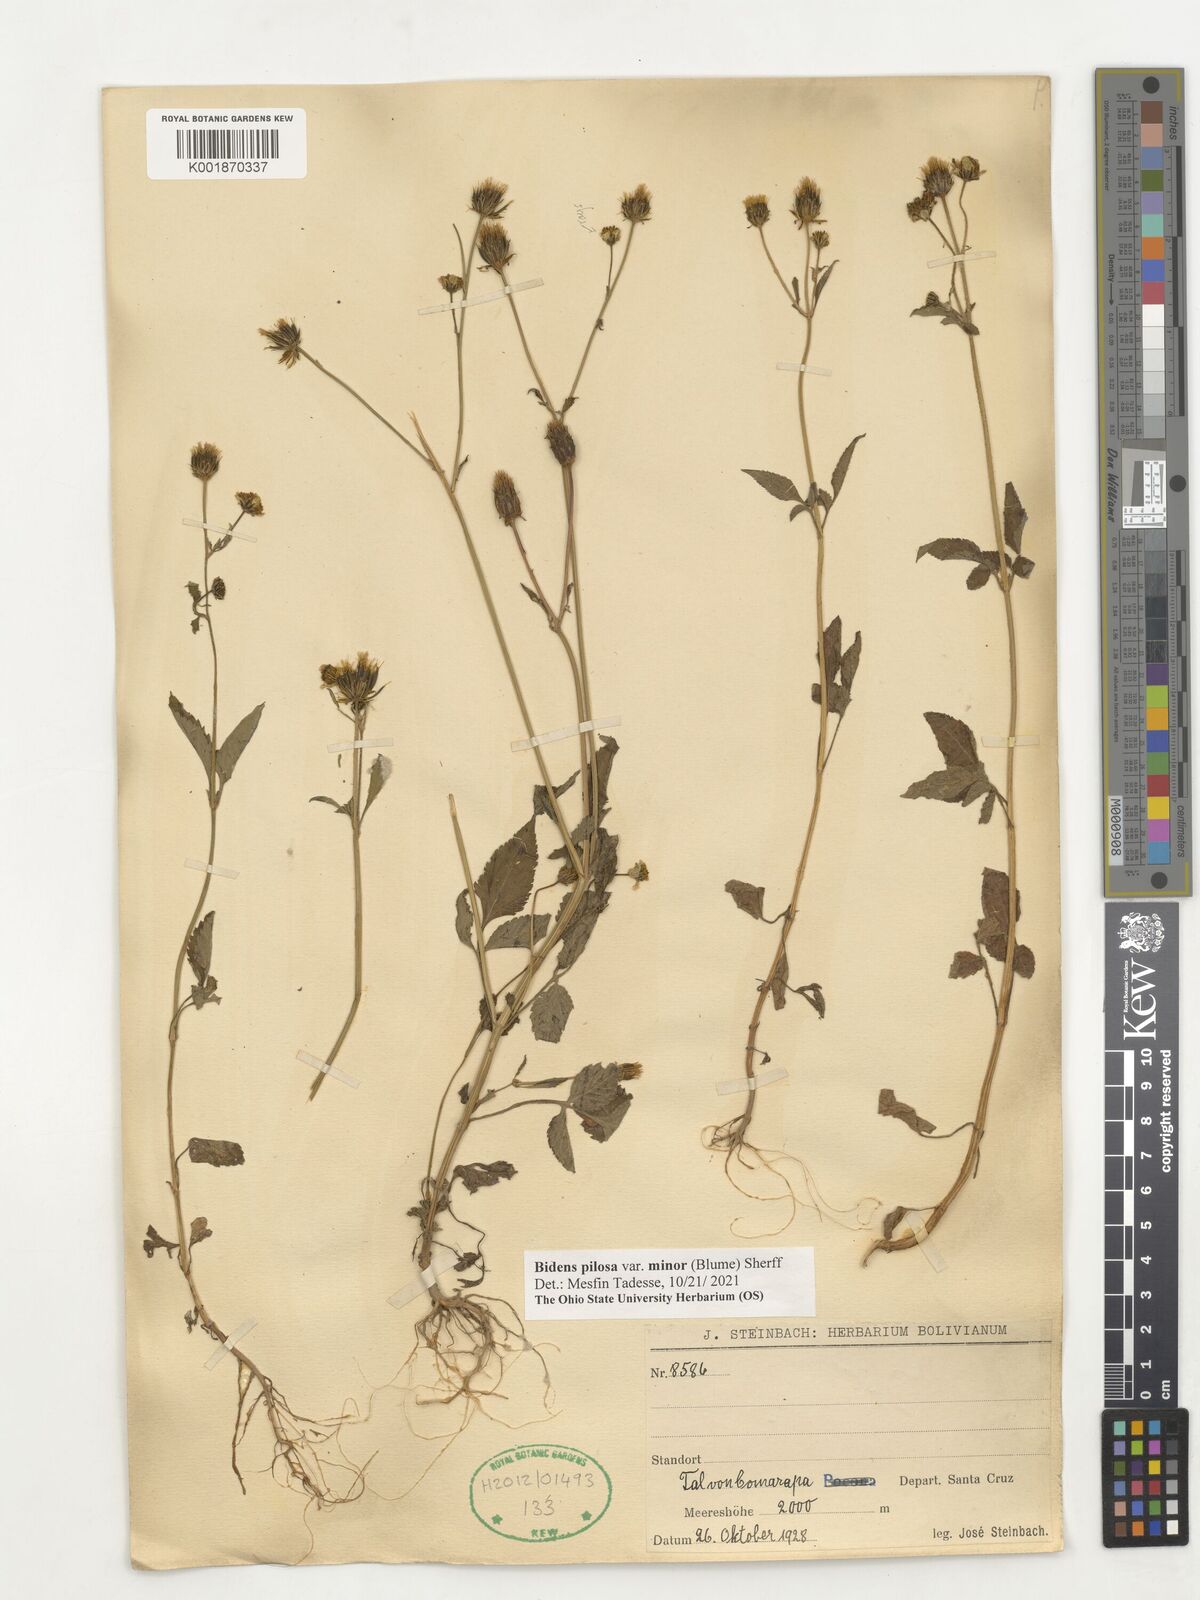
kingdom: Plantae
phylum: Tracheophyta
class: Magnoliopsida
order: Asterales
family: Asteraceae
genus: Bidens
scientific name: Bidens pilosa
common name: Black-jack
